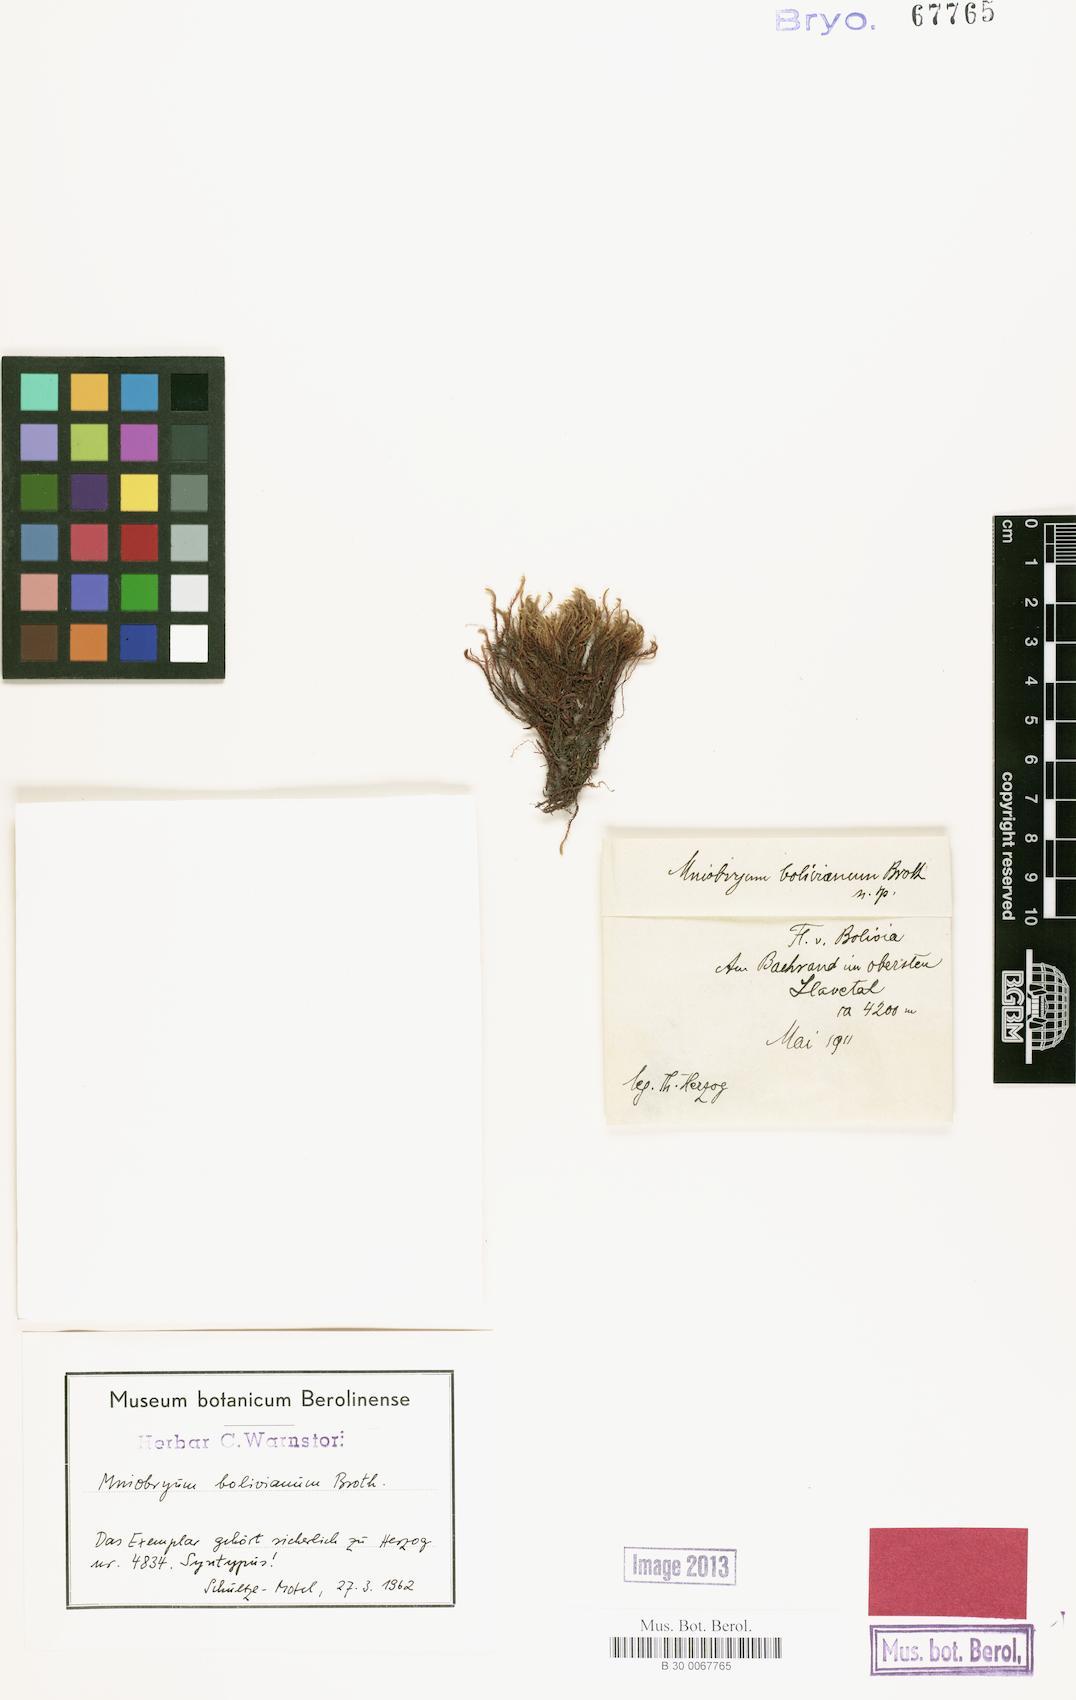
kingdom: Plantae
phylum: Bryophyta
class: Bryopsida
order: Bryales
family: Mniaceae
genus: Pohlia
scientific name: Pohlia wahlenbergii
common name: Wahlenberg's nodding moss
